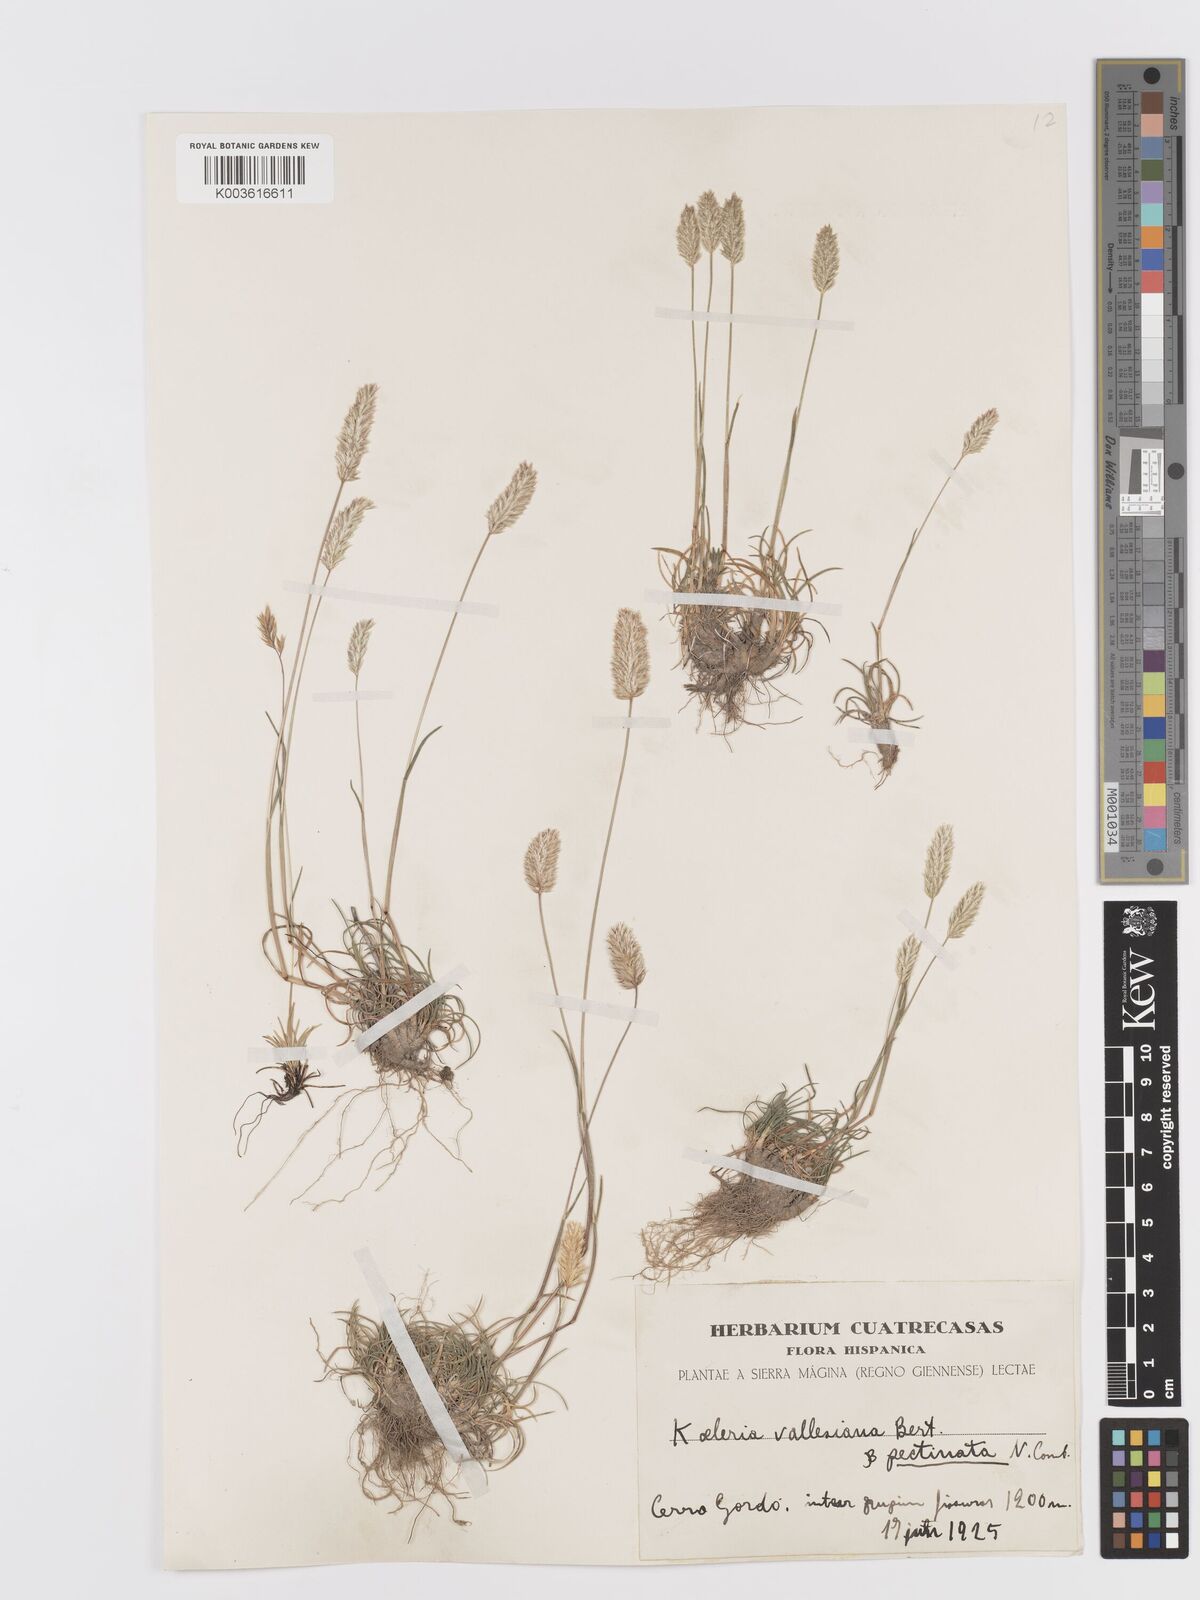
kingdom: Plantae
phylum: Tracheophyta
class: Liliopsida
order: Poales
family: Poaceae
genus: Koeleria
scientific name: Koeleria vallesiana
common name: Somerset hair-grass
